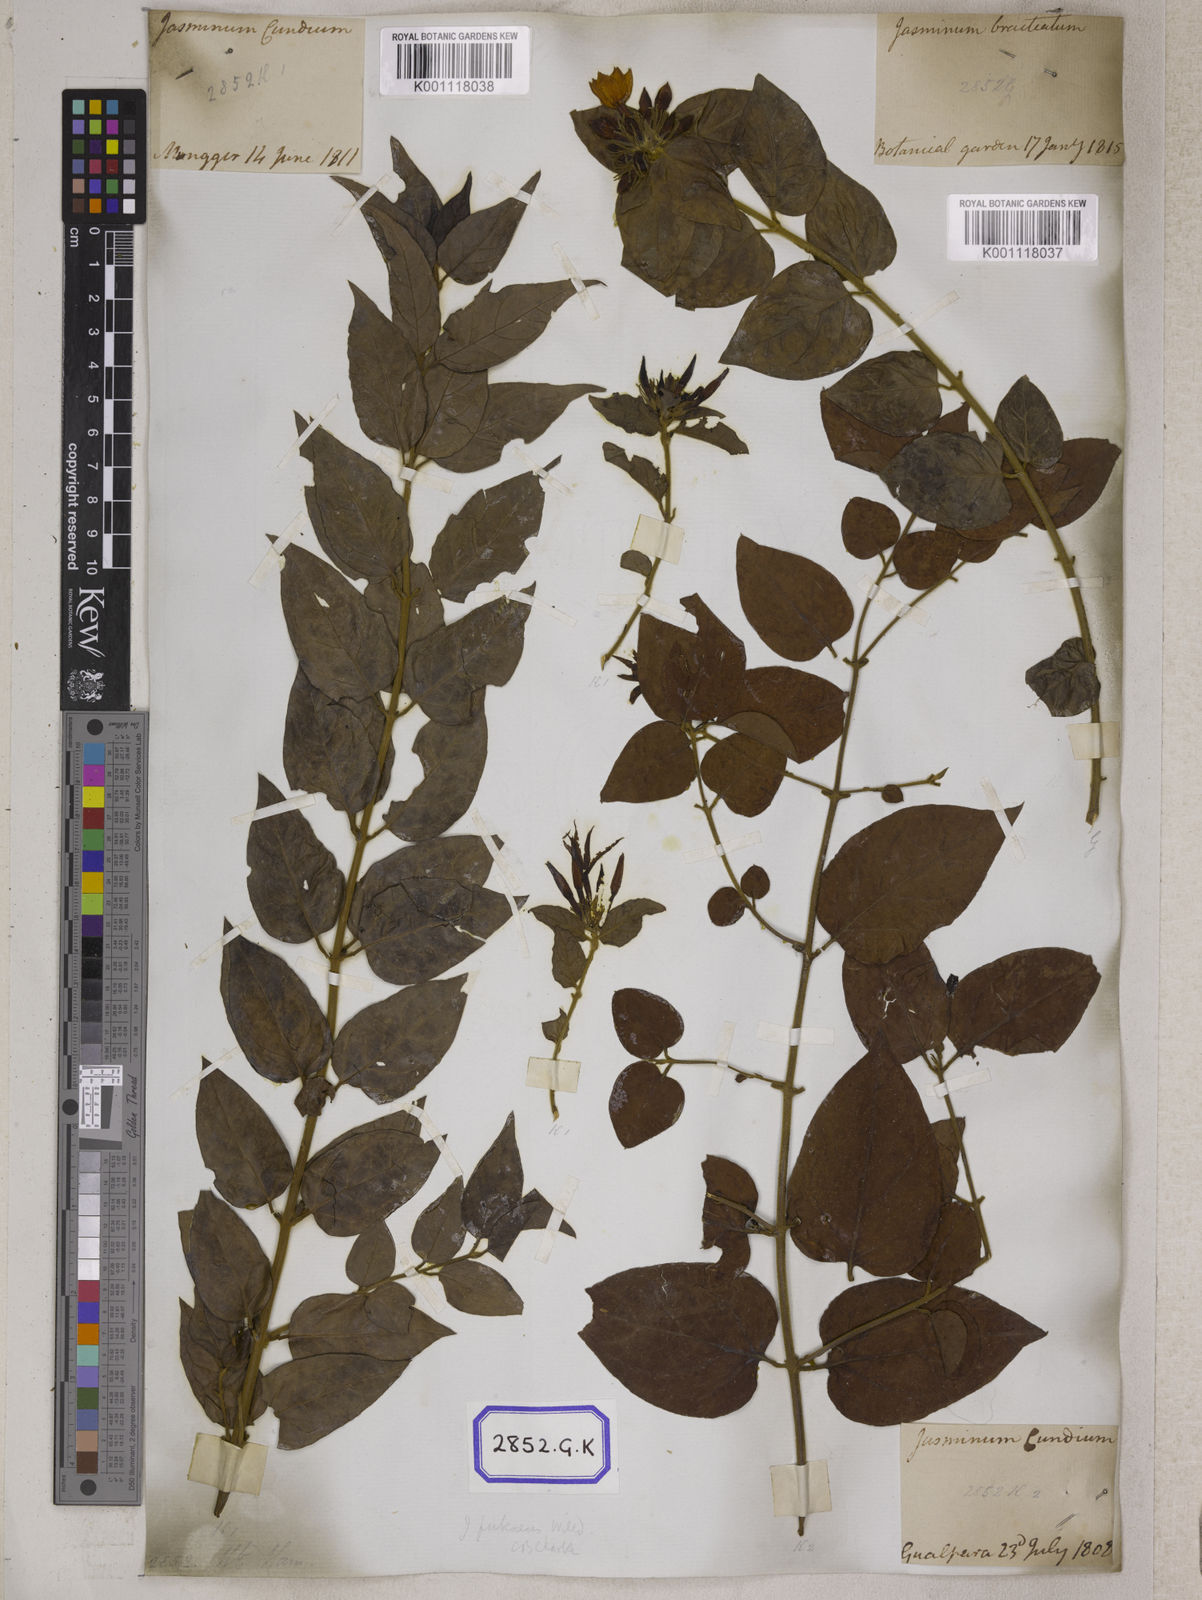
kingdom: Plantae
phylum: Tracheophyta
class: Magnoliopsida
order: Gentianales
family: Rubiaceae
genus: Guettarda
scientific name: Guettarda speciosa
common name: Sea randa
